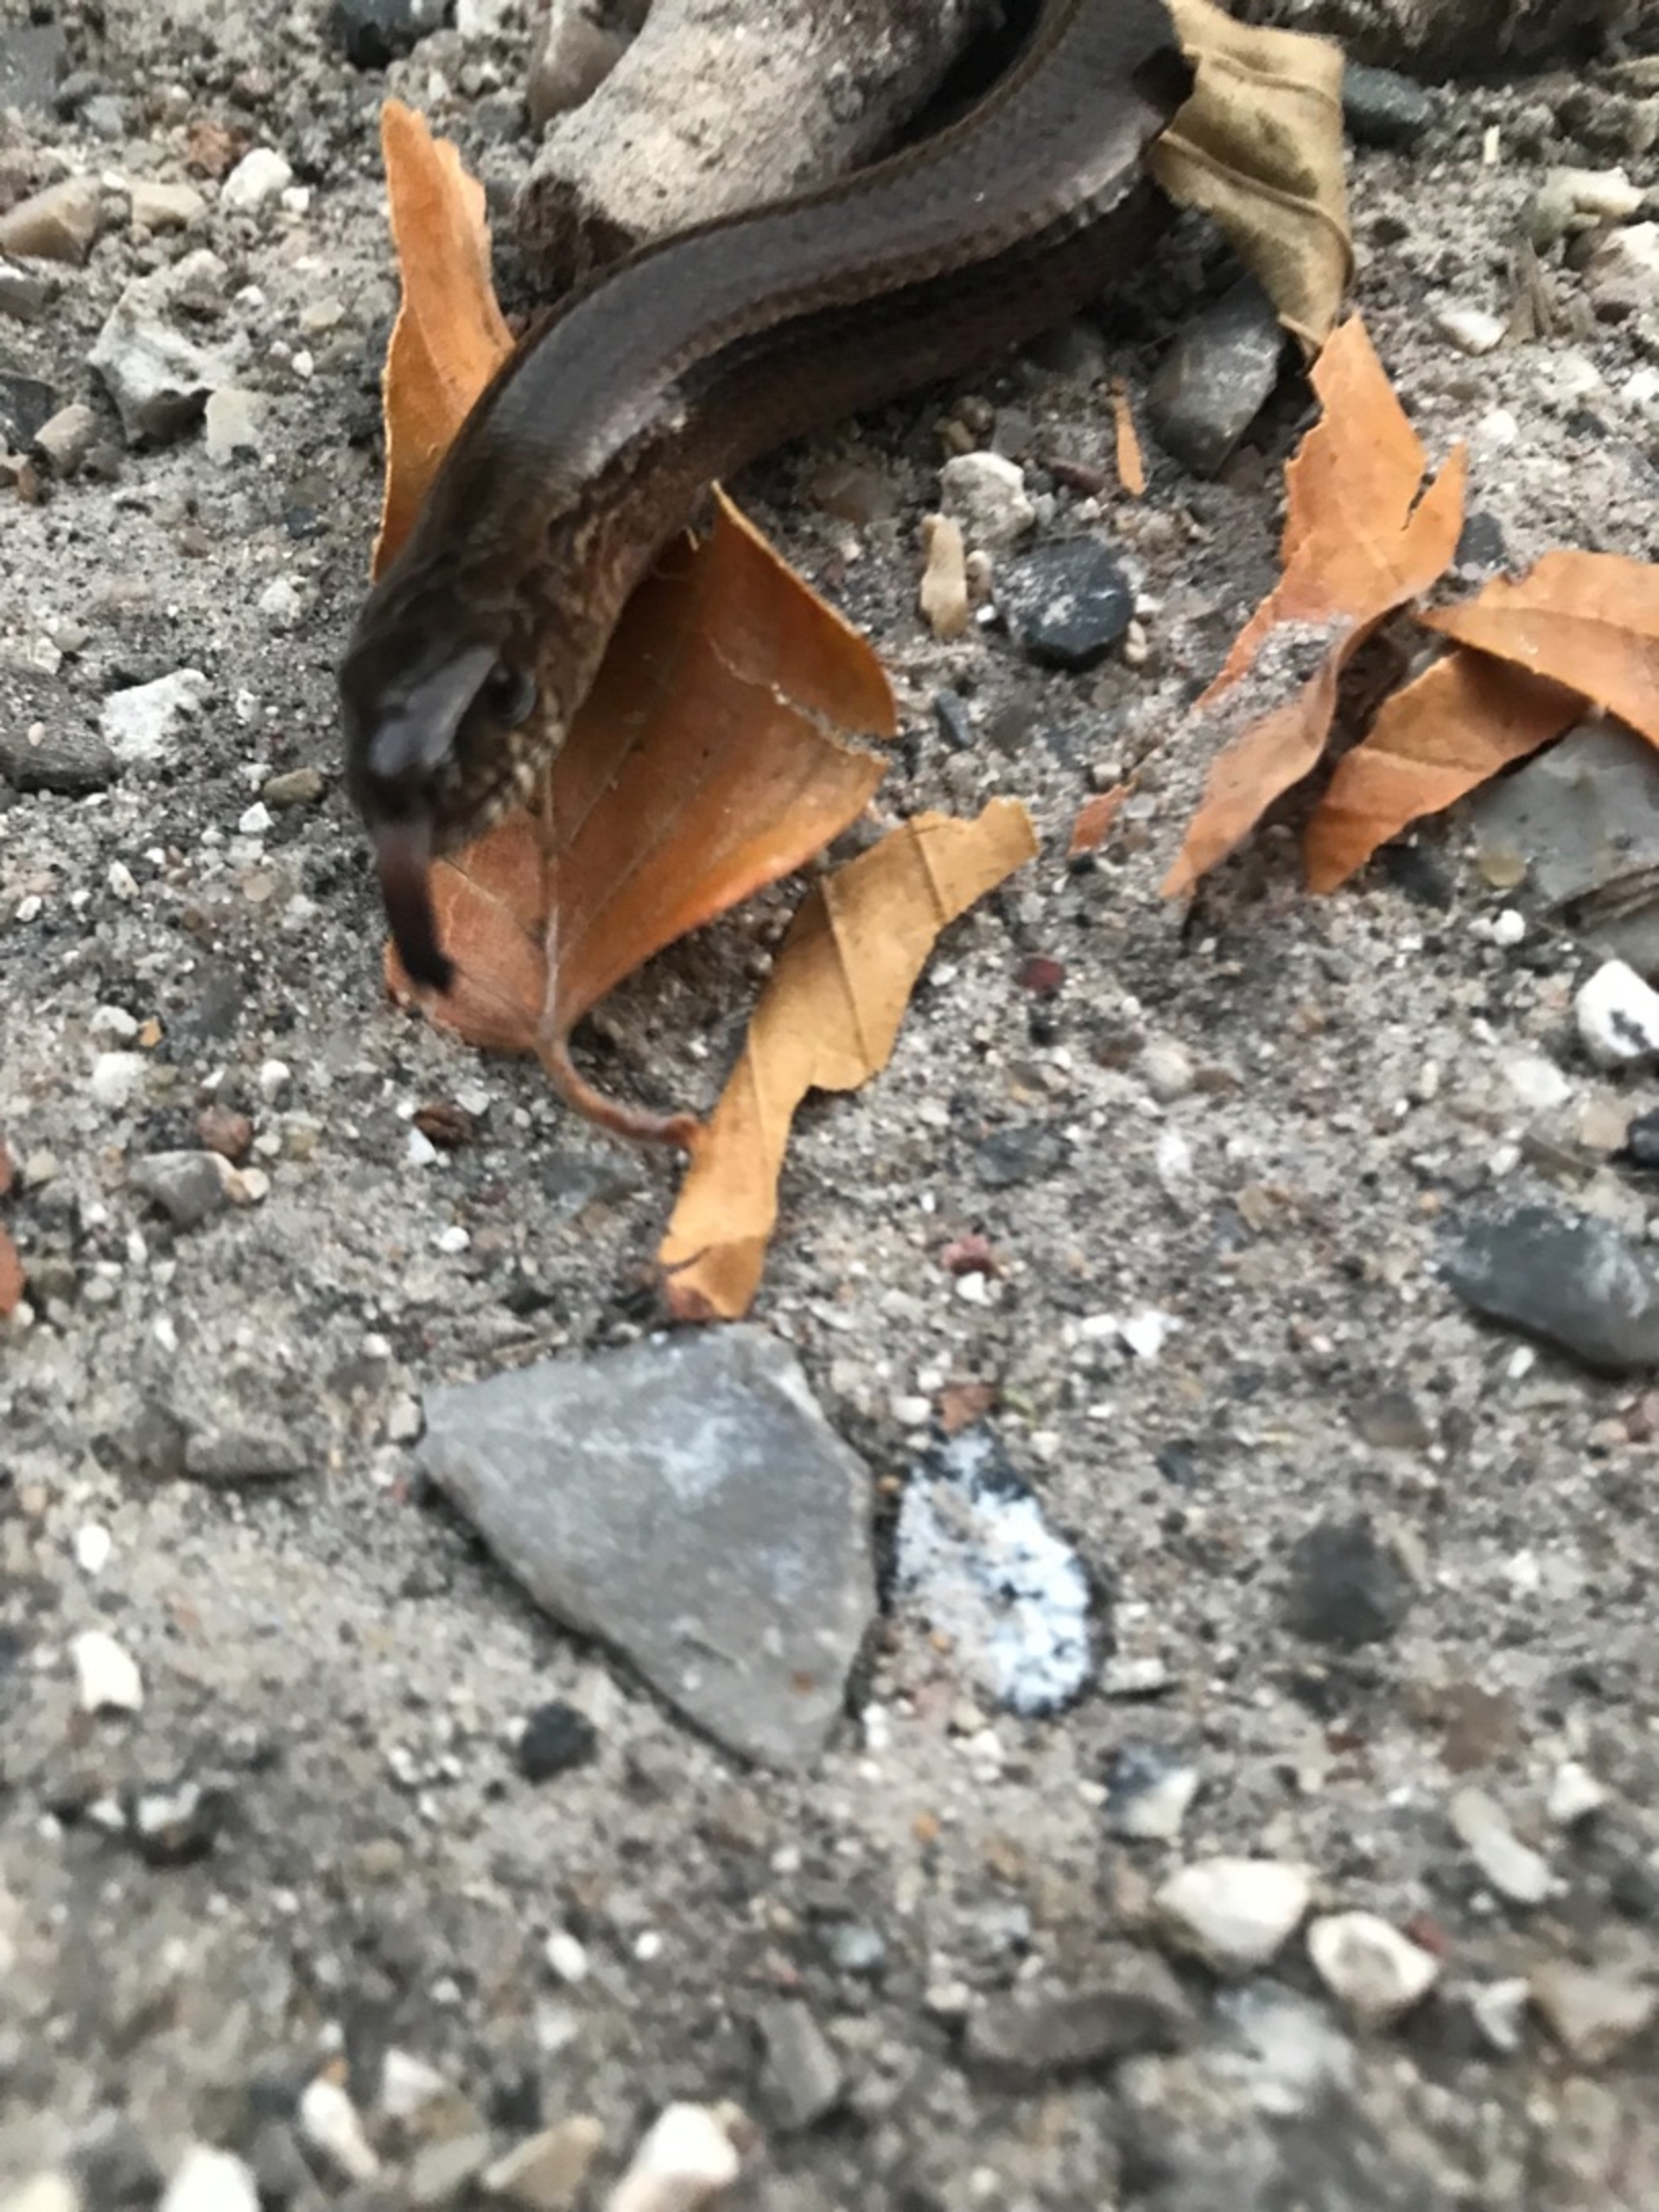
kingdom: Animalia
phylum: Chordata
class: Squamata
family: Anguidae
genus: Anguis
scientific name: Anguis fragilis
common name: Stålorm
